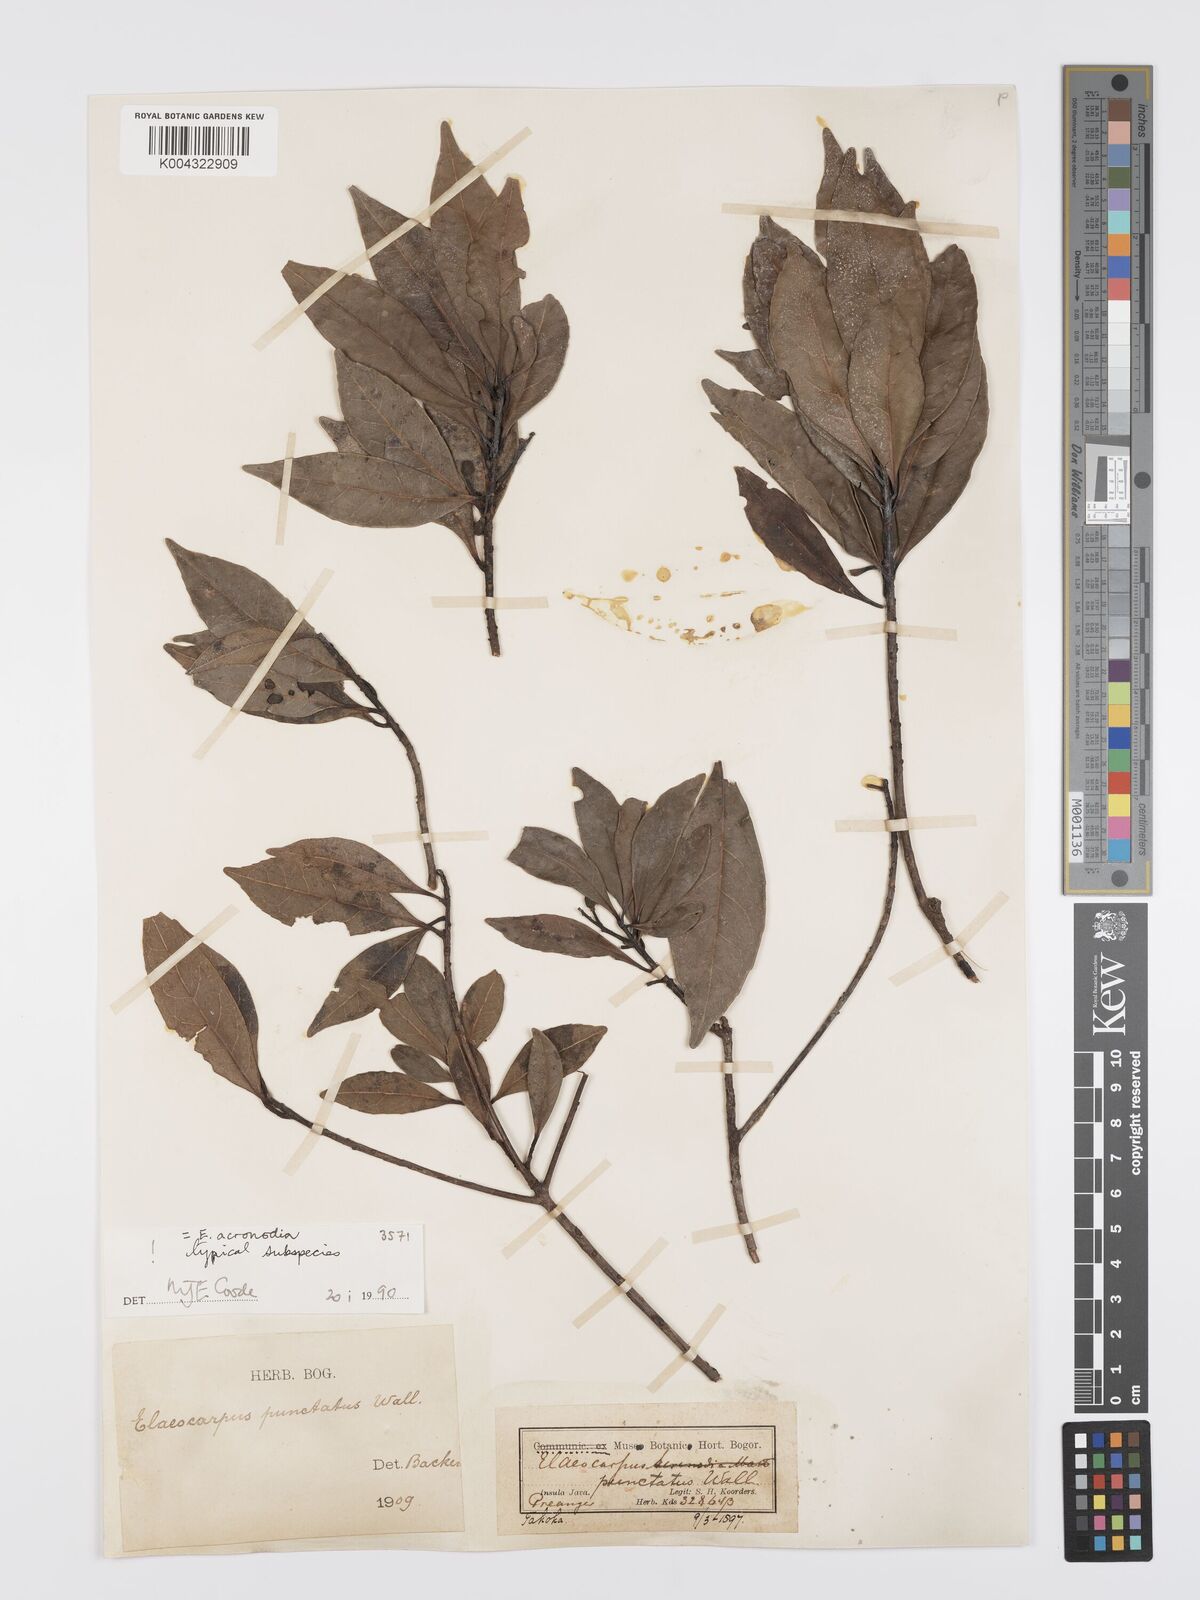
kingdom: Plantae
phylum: Tracheophyta
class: Magnoliopsida
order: Oxalidales
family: Elaeocarpaceae
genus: Elaeocarpus
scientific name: Elaeocarpus acronodia
